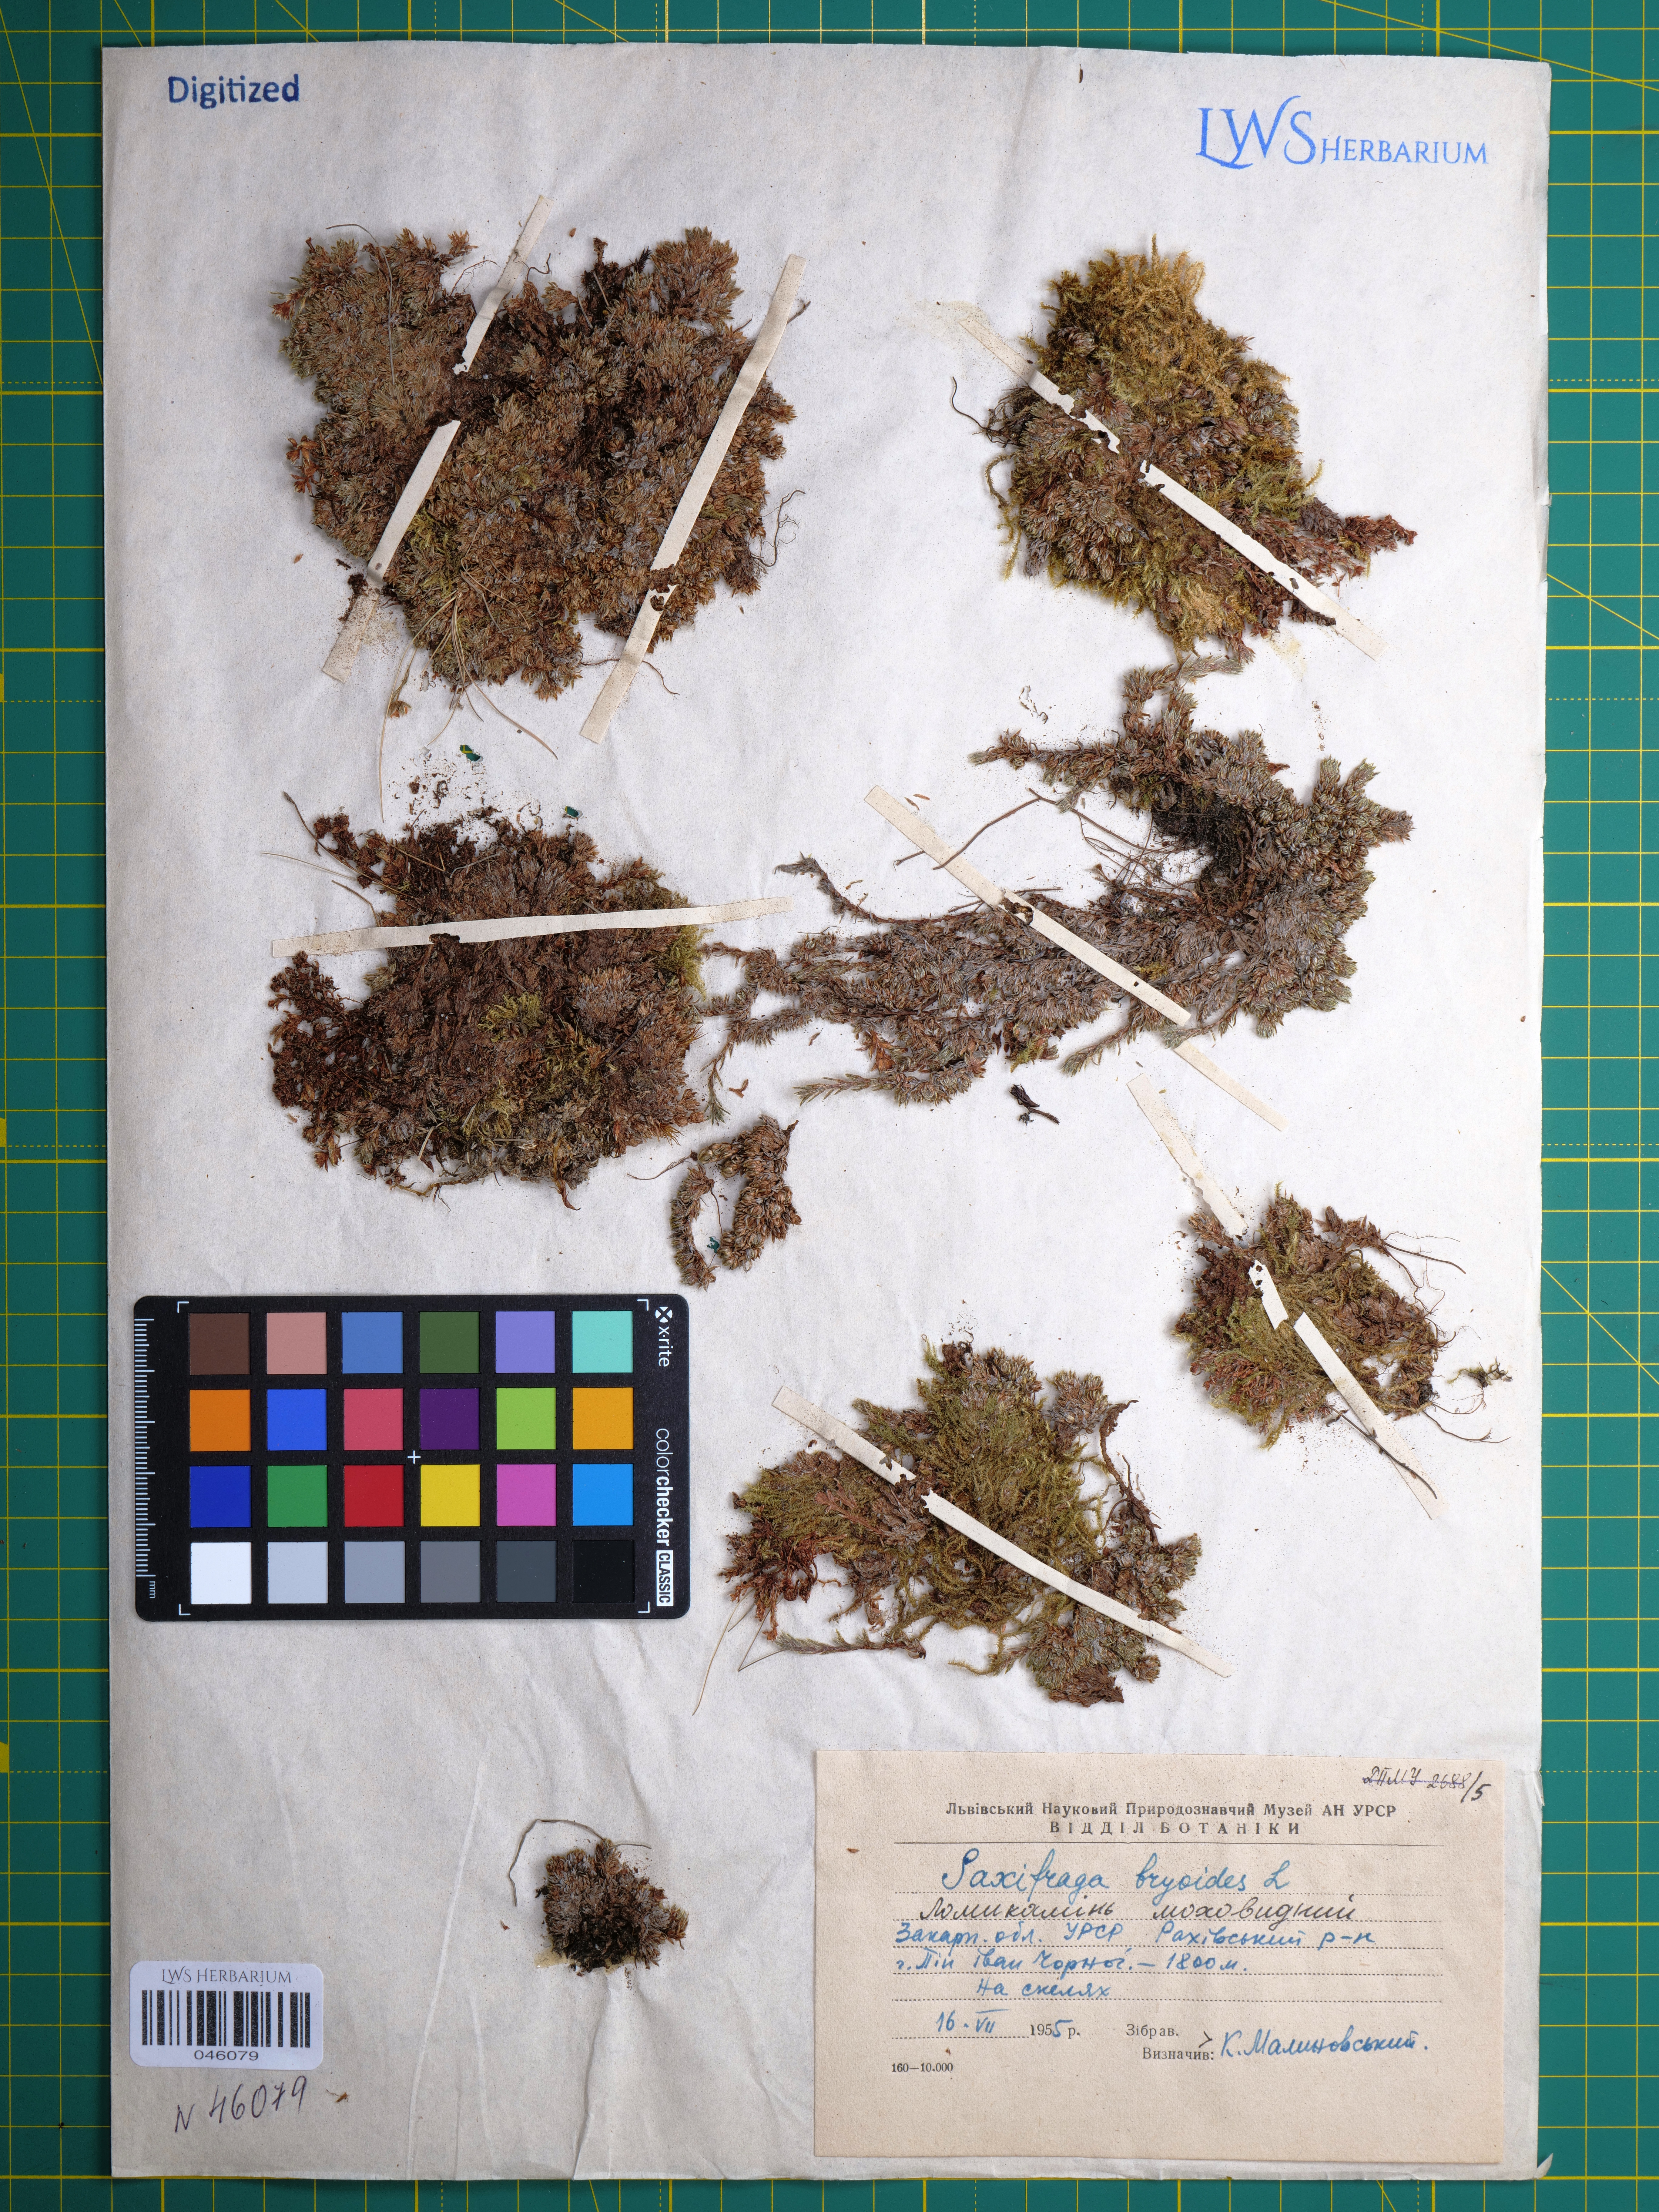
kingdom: Plantae
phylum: Tracheophyta
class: Magnoliopsida
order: Saxifragales
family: Saxifragaceae
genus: Saxifraga
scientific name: Saxifraga bryoides
